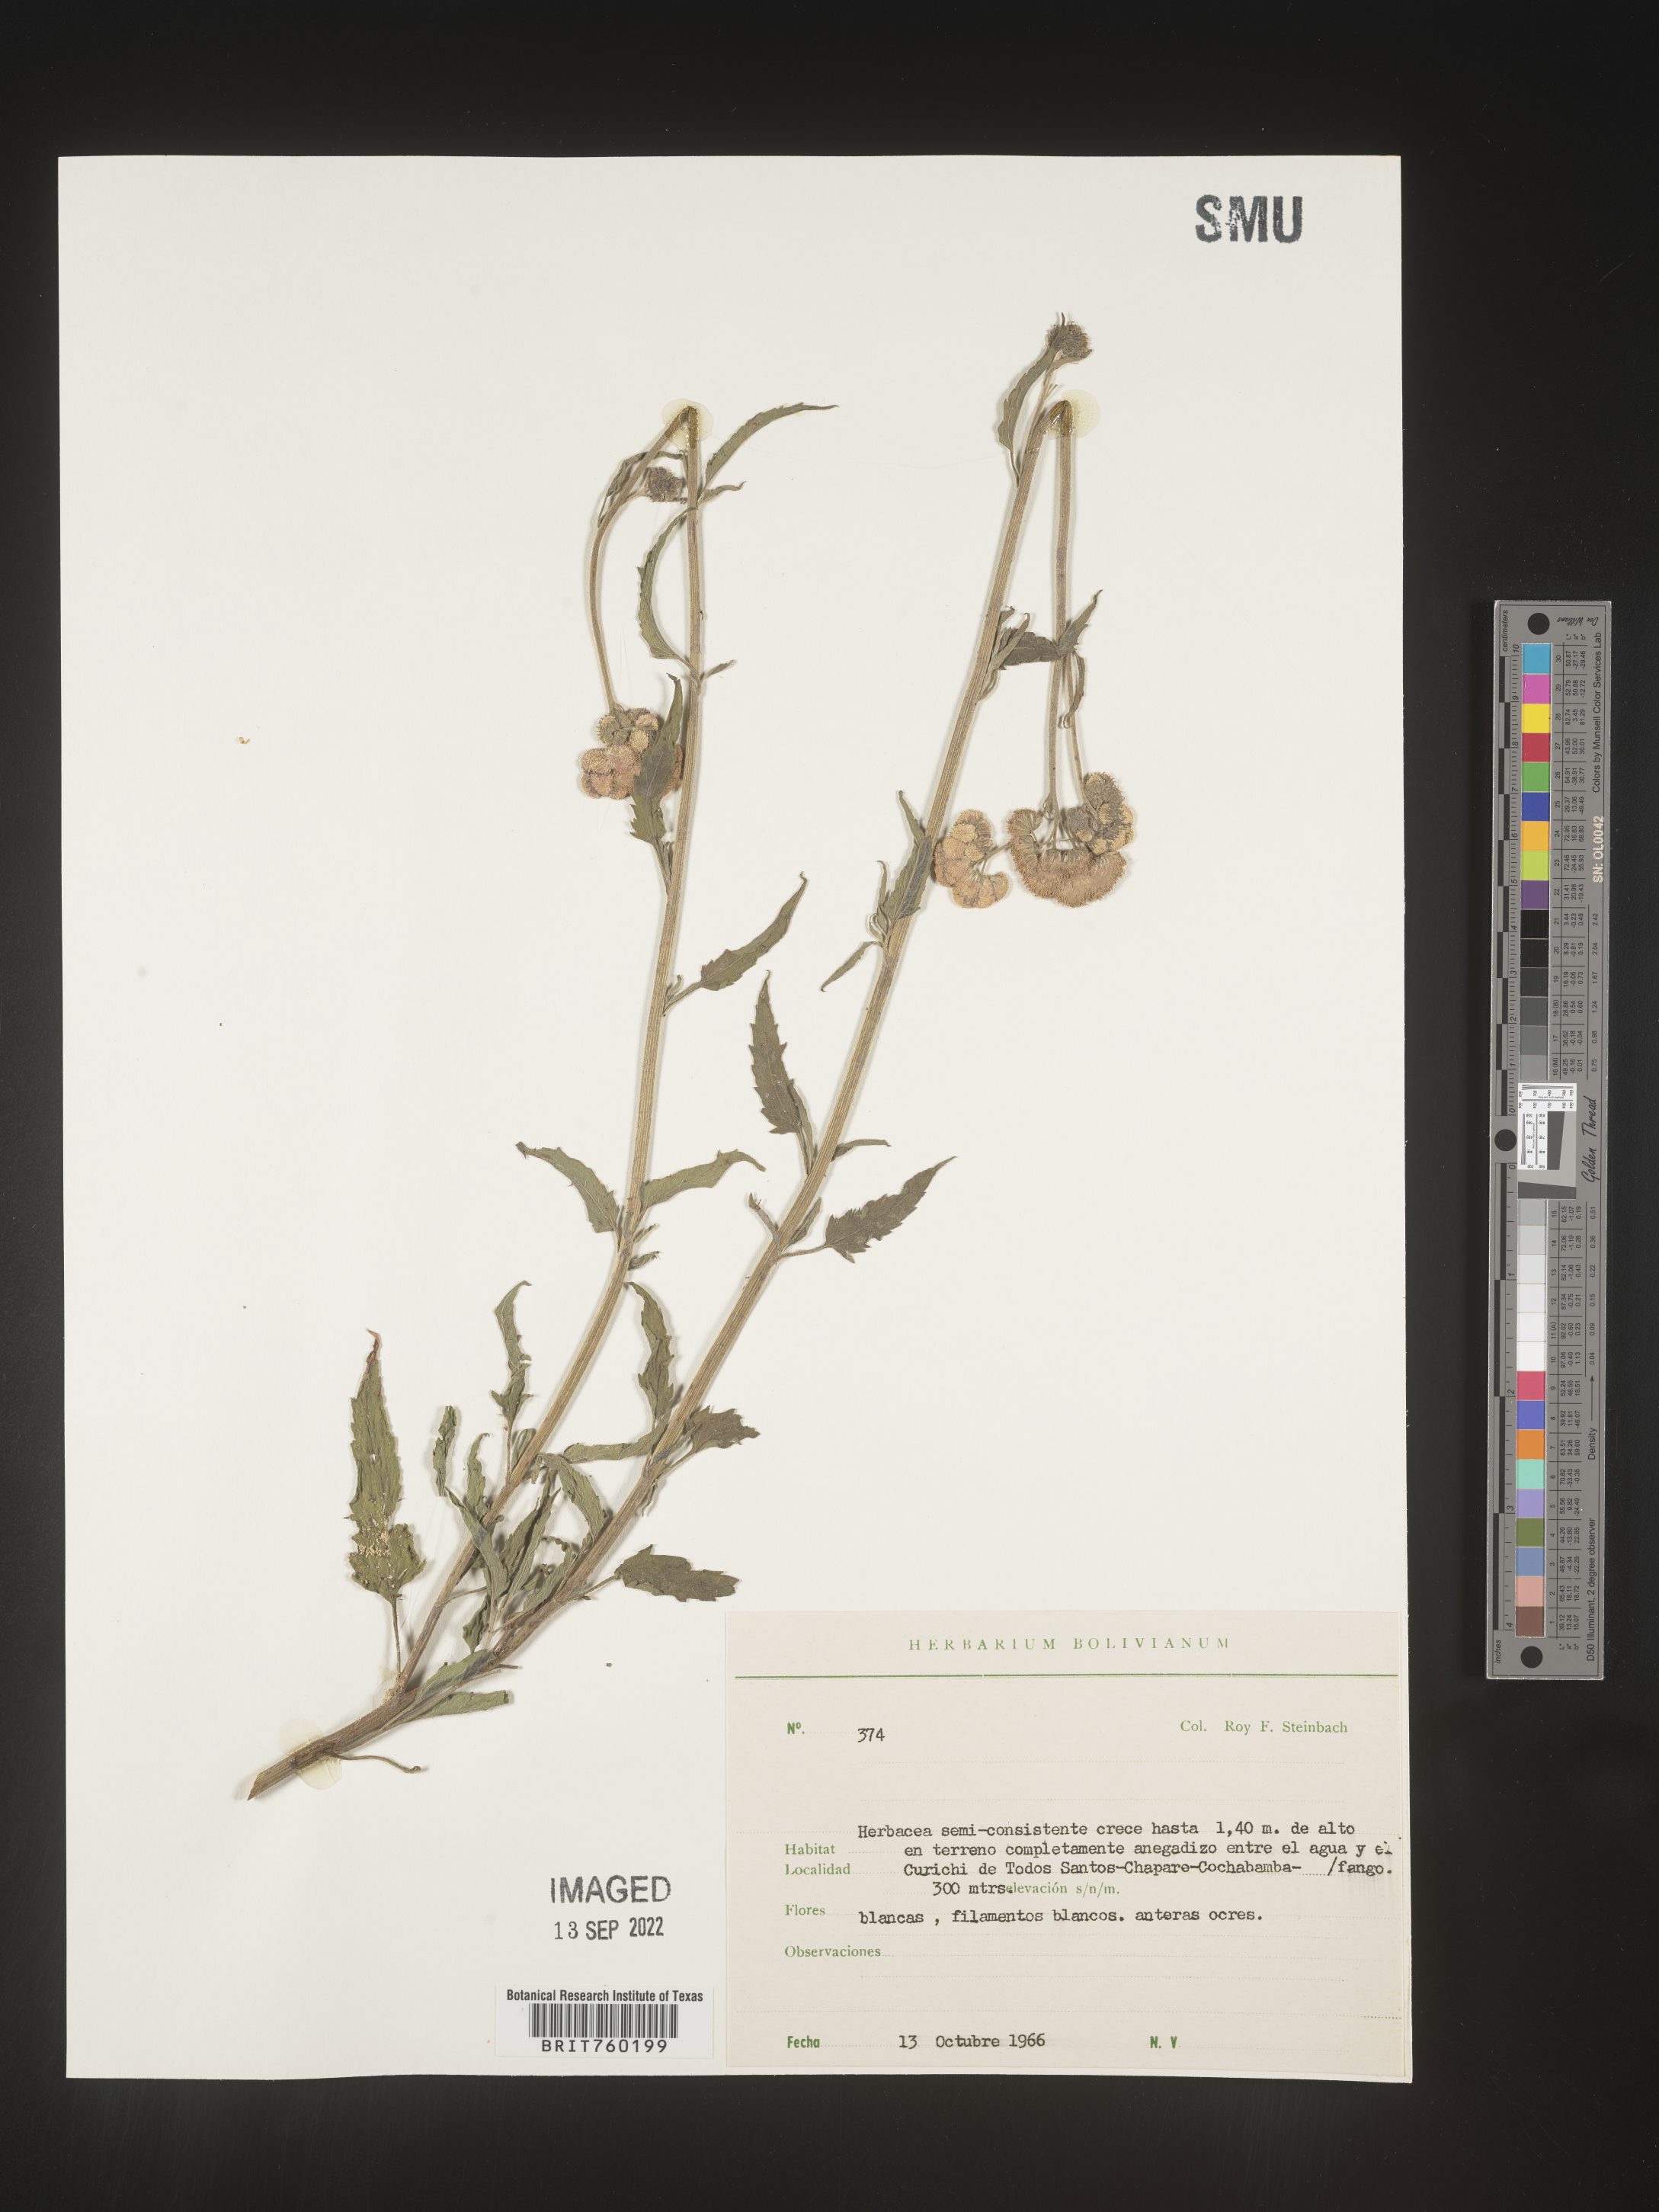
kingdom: Plantae
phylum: Tracheophyta
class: Magnoliopsida
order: Asterales
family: Asteraceae
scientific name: Asteraceae
